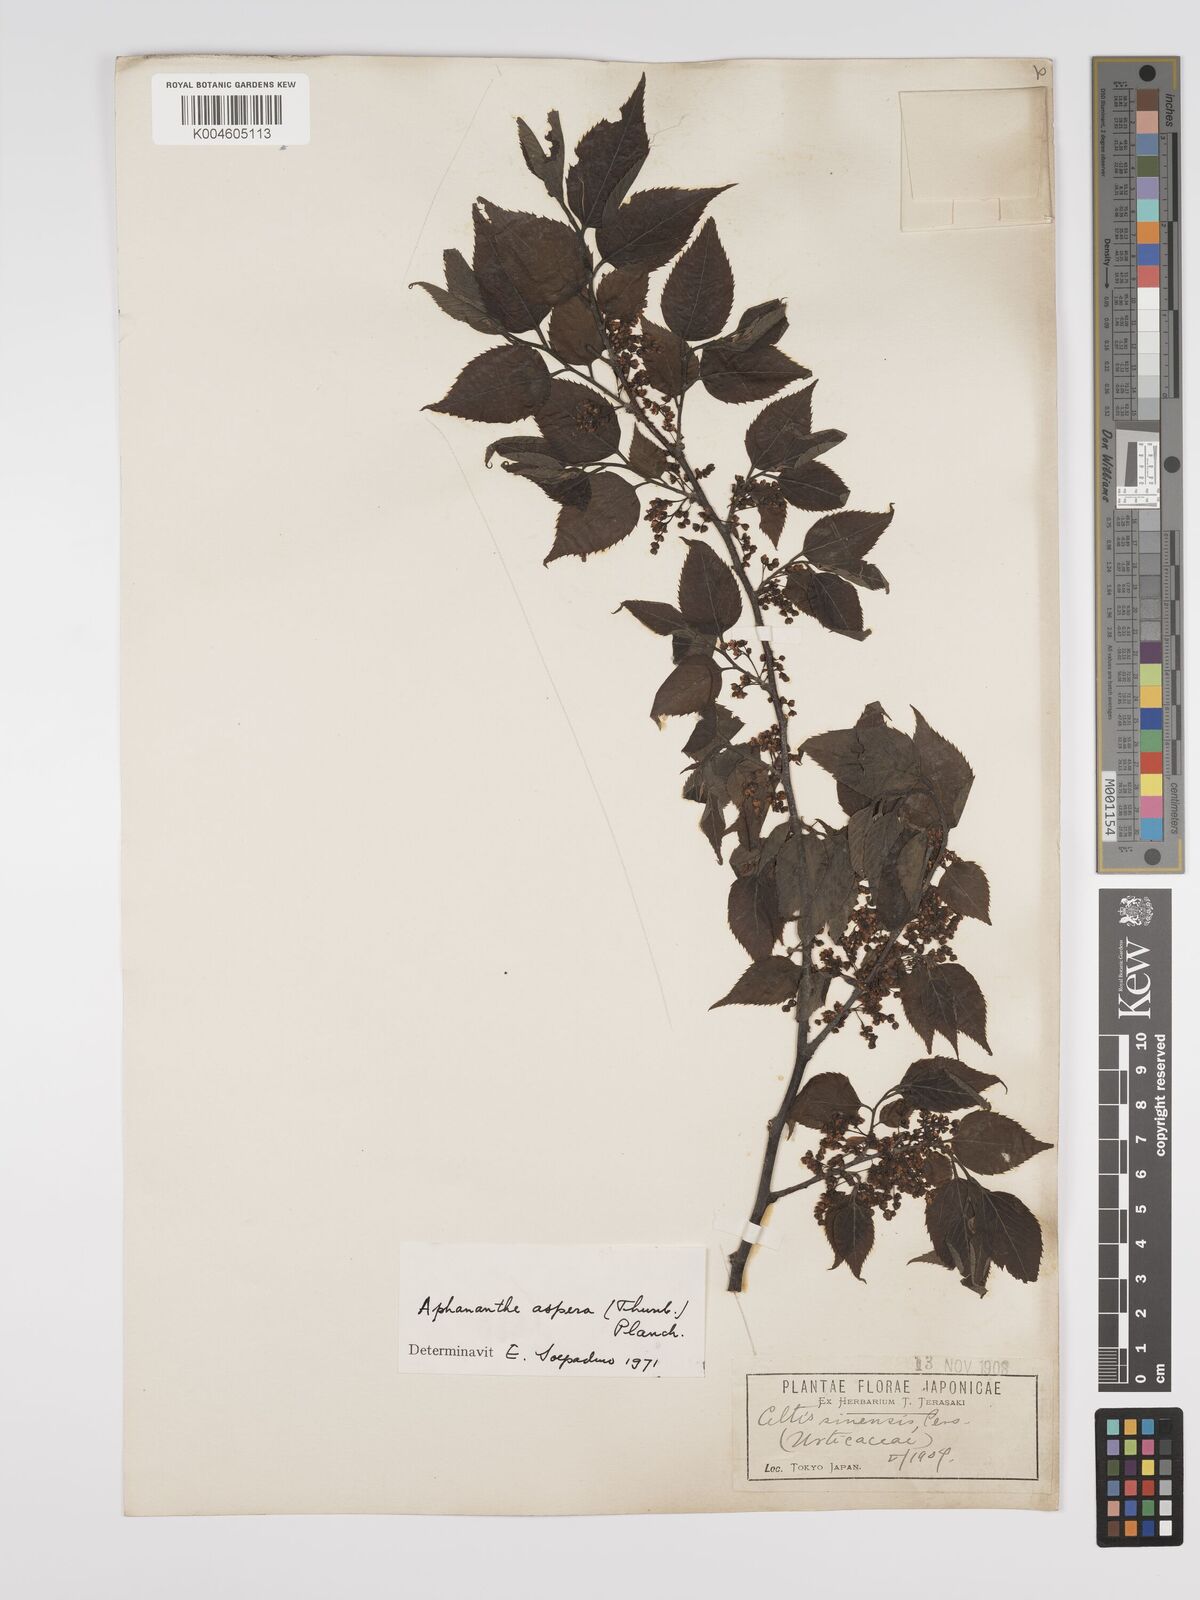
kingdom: Plantae
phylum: Tracheophyta
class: Magnoliopsida
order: Rosales
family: Cannabaceae
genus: Aphananthe
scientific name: Aphananthe aspera
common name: Mukutree
